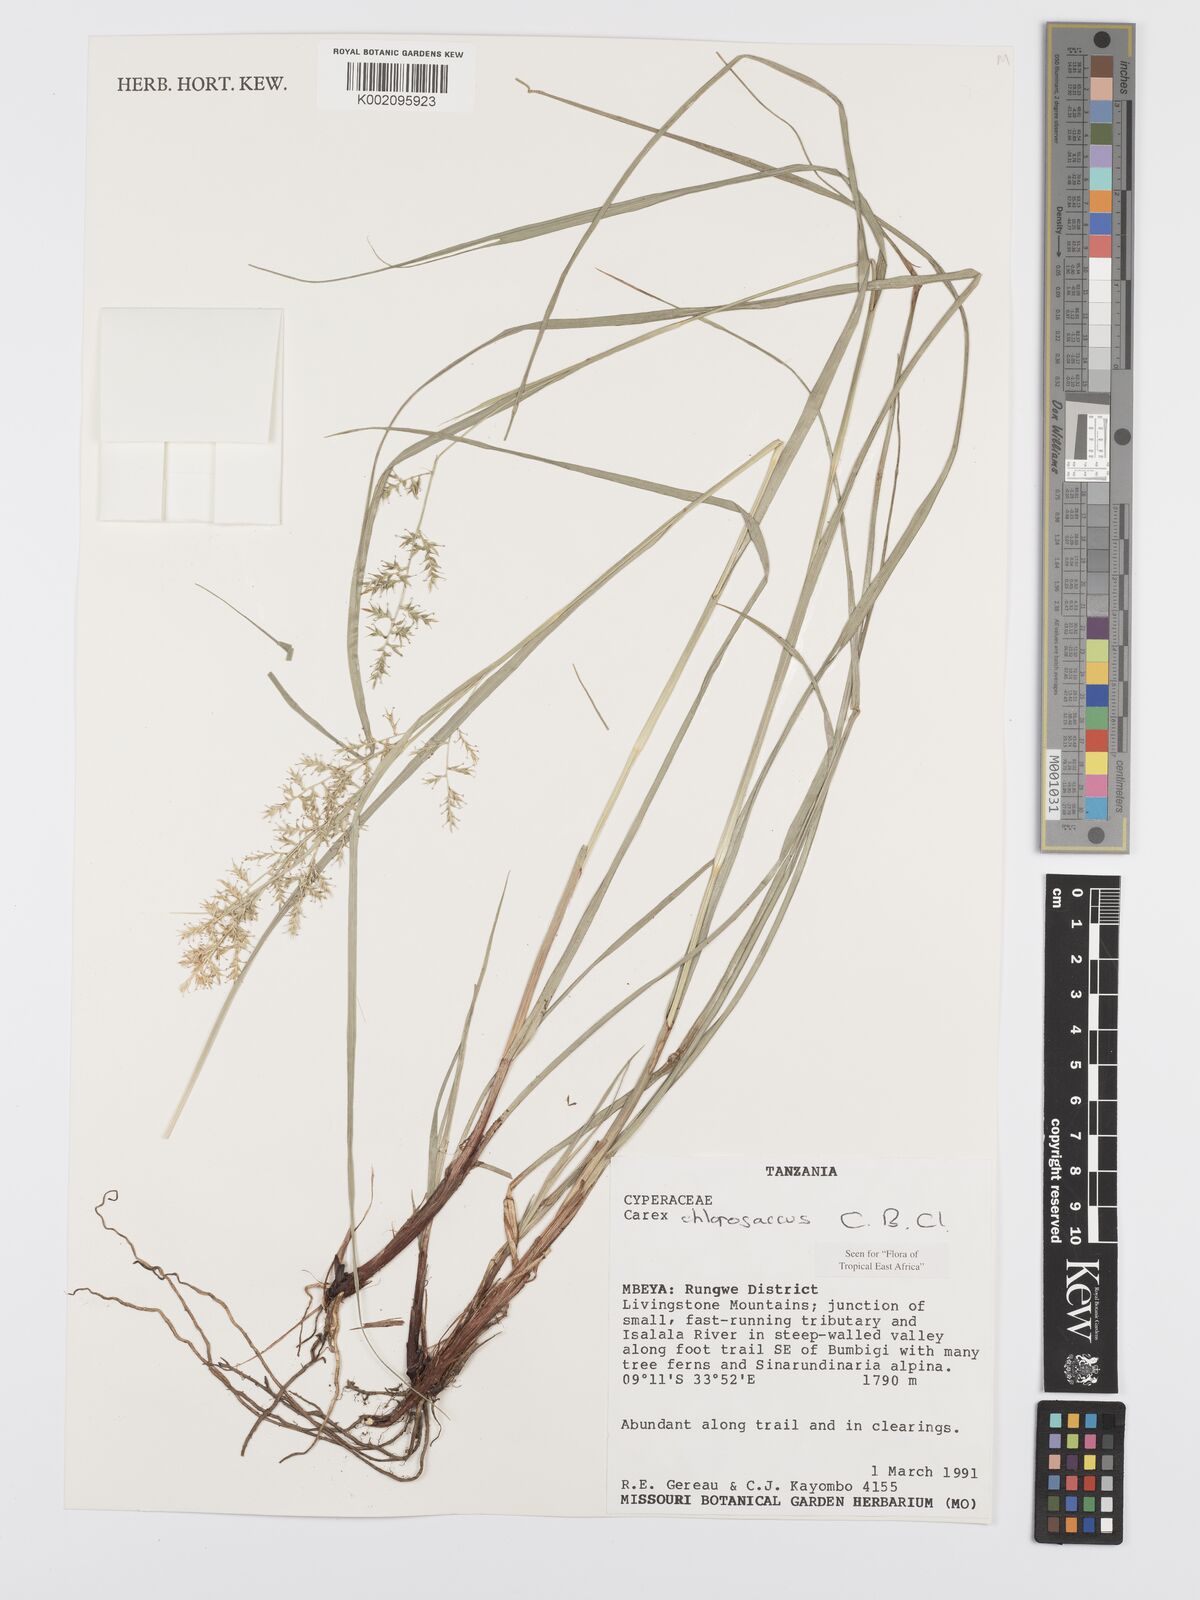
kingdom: Plantae
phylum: Tracheophyta
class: Liliopsida
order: Poales
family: Cyperaceae
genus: Carex
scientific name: Carex chlorosaccus
